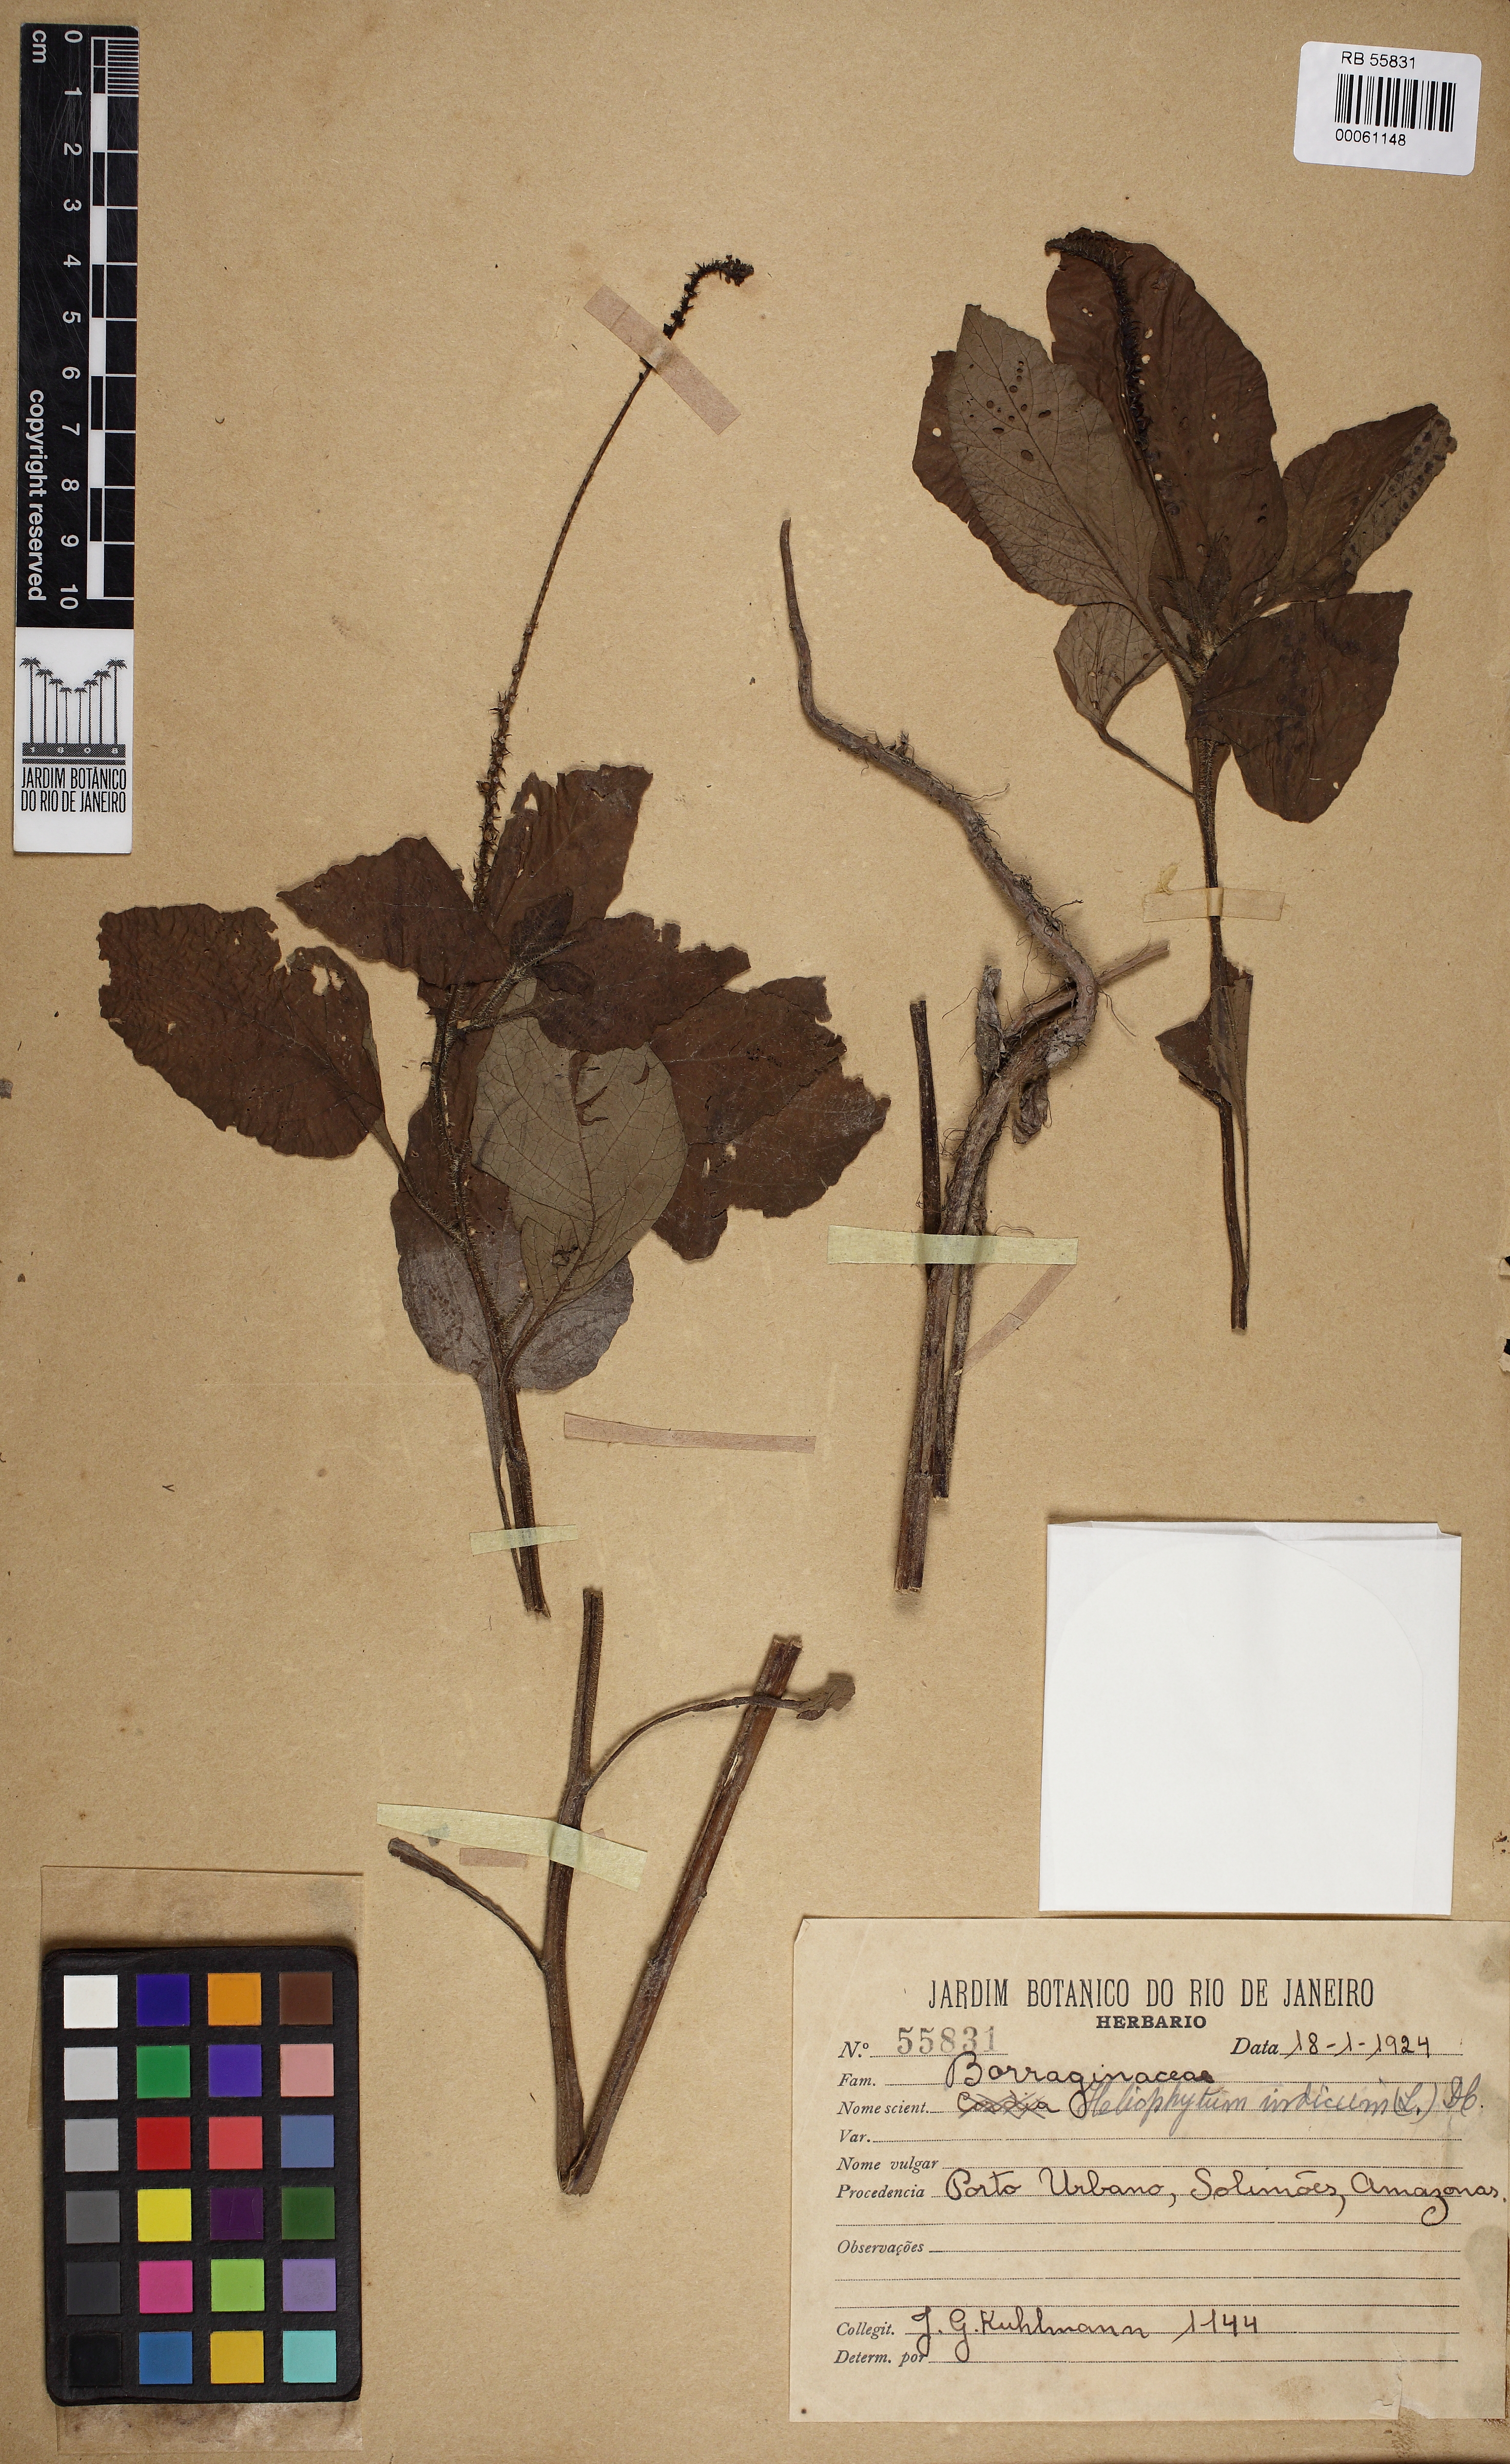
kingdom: Plantae
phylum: Tracheophyta
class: Magnoliopsida
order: Boraginales
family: Heliotropiaceae
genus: Heliotropium
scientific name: Heliotropium indicum
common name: Indian heliotrope
